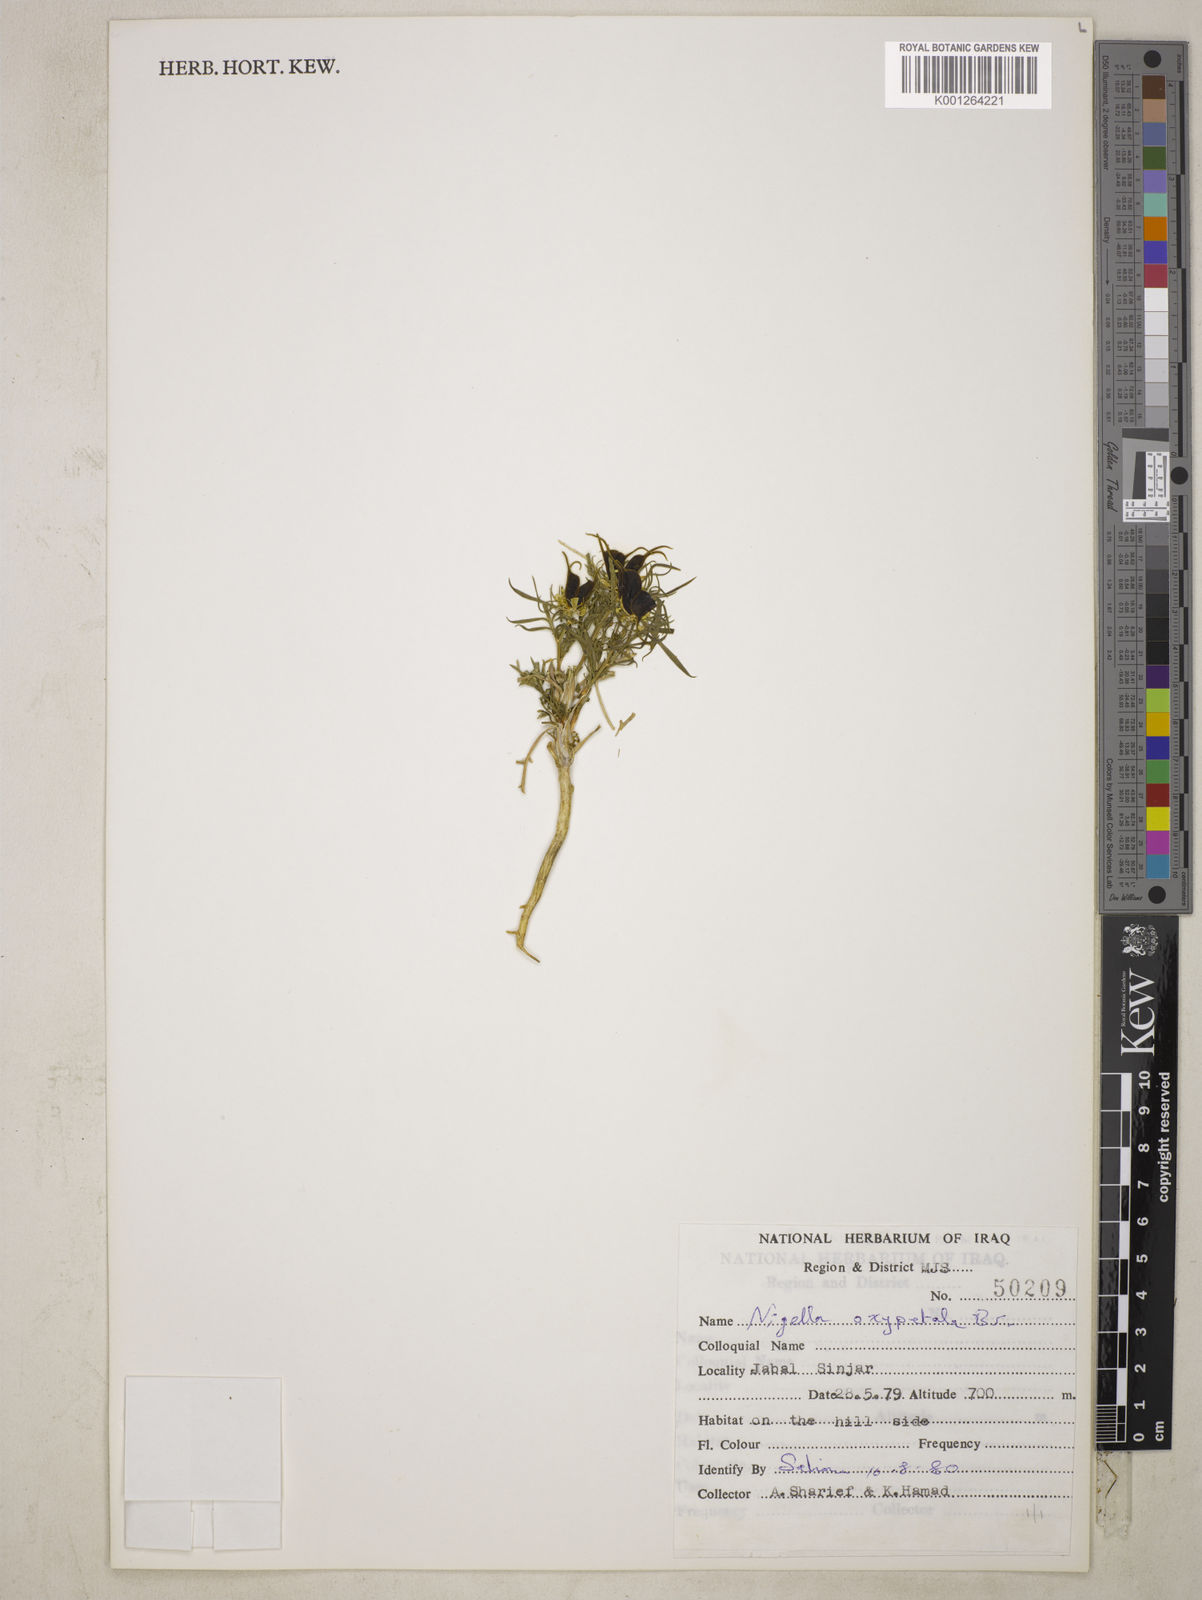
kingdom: Plantae
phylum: Tracheophyta
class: Magnoliopsida
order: Ranunculales
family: Ranunculaceae
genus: Nigella
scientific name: Nigella oxypetala
